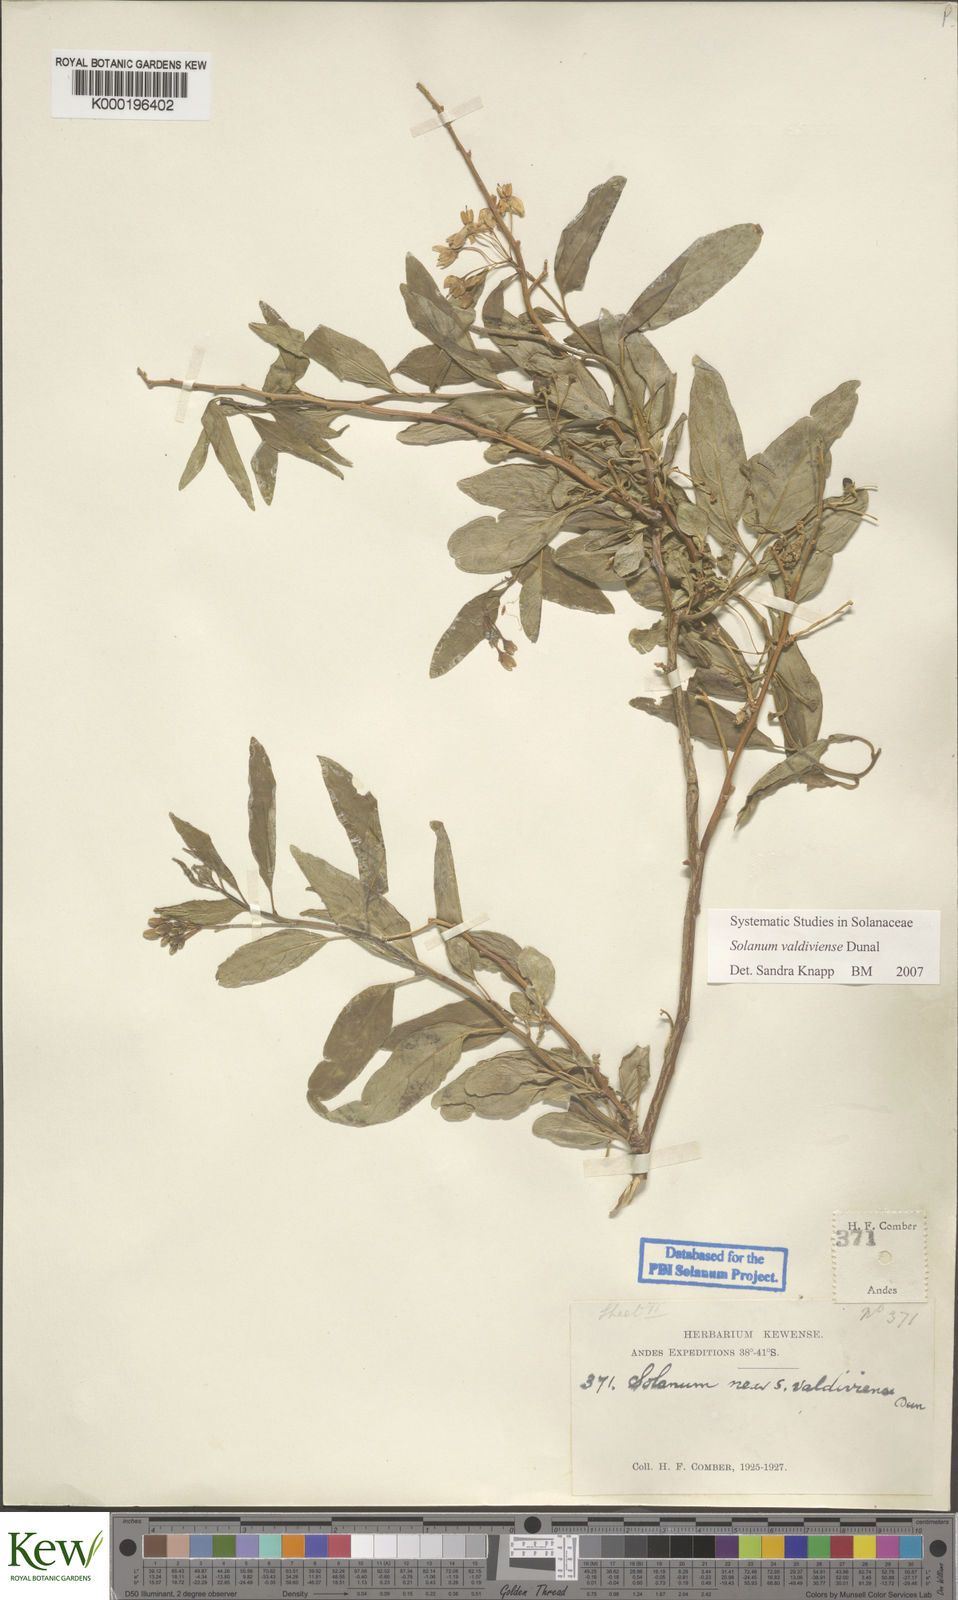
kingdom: Plantae
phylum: Tracheophyta
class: Magnoliopsida
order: Solanales
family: Solanaceae
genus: Solanum
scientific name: Solanum valdiviense
